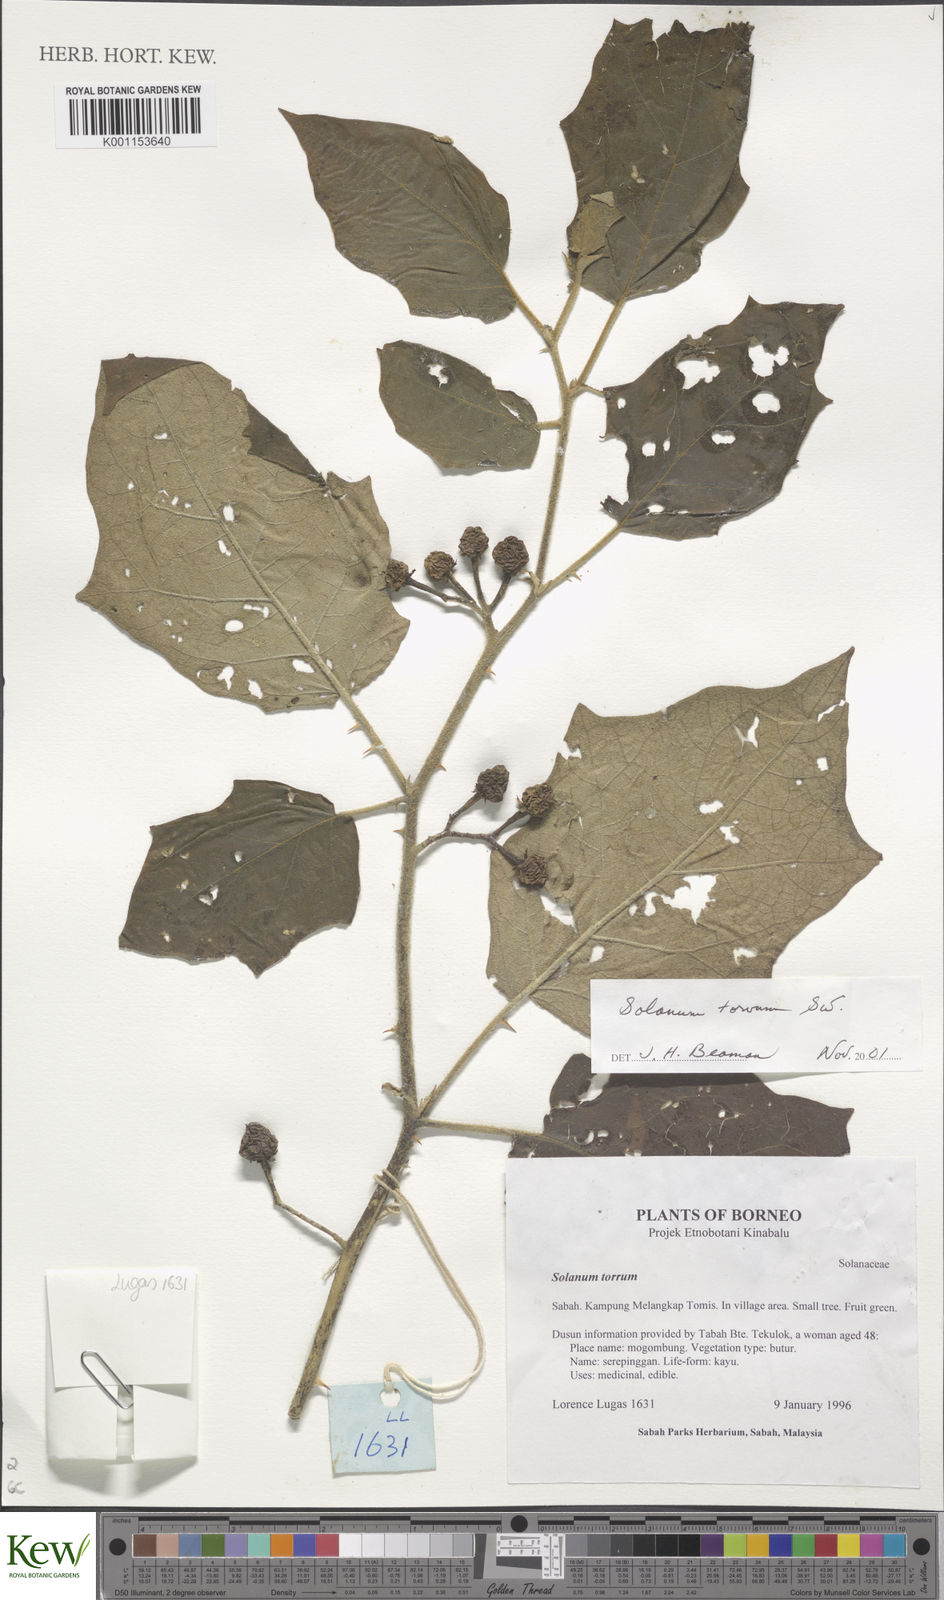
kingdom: Plantae
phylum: Tracheophyta
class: Magnoliopsida
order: Solanales
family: Solanaceae
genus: Solanum
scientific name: Solanum torvum
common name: Turkey berry
